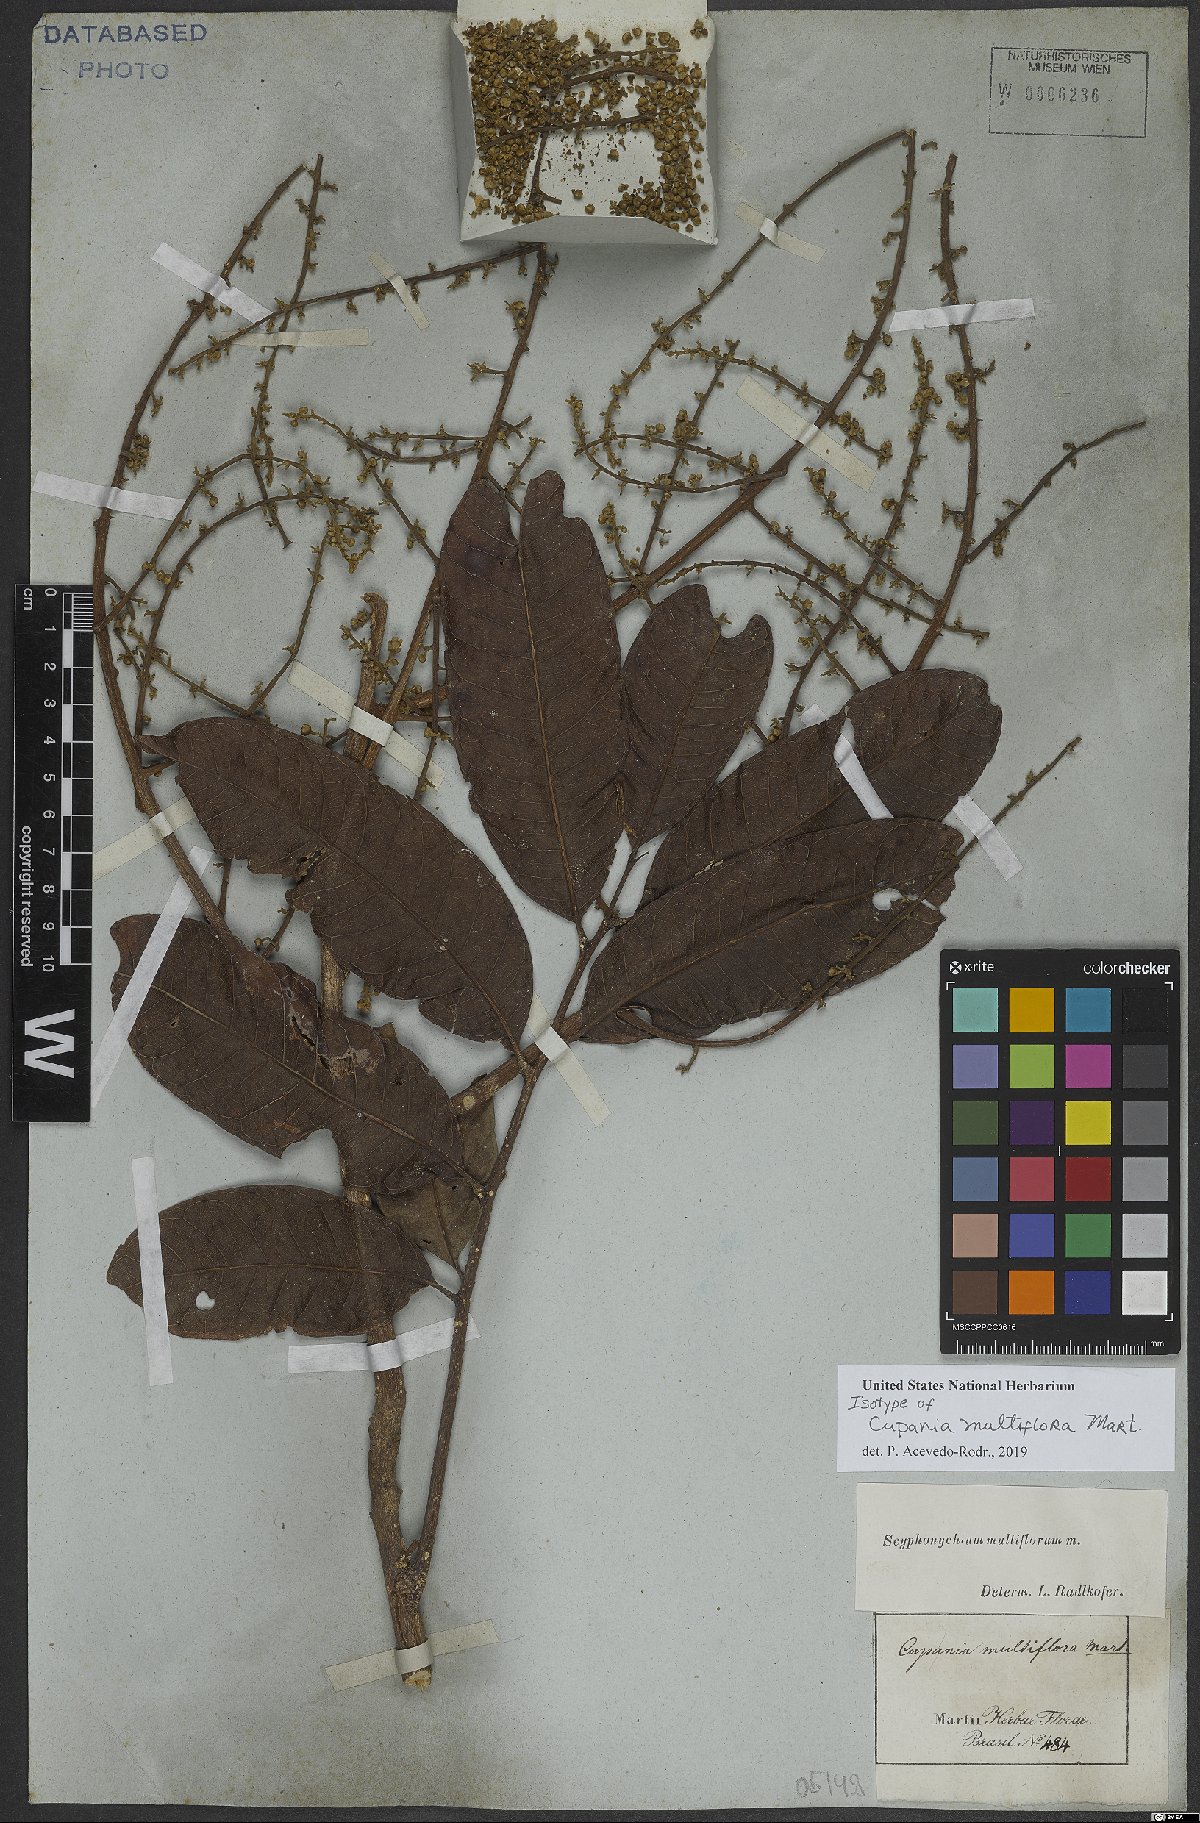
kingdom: Plantae
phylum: Tracheophyta
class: Magnoliopsida
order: Sapindales
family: Sapindaceae
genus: Cupania
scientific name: Cupania multiflora
